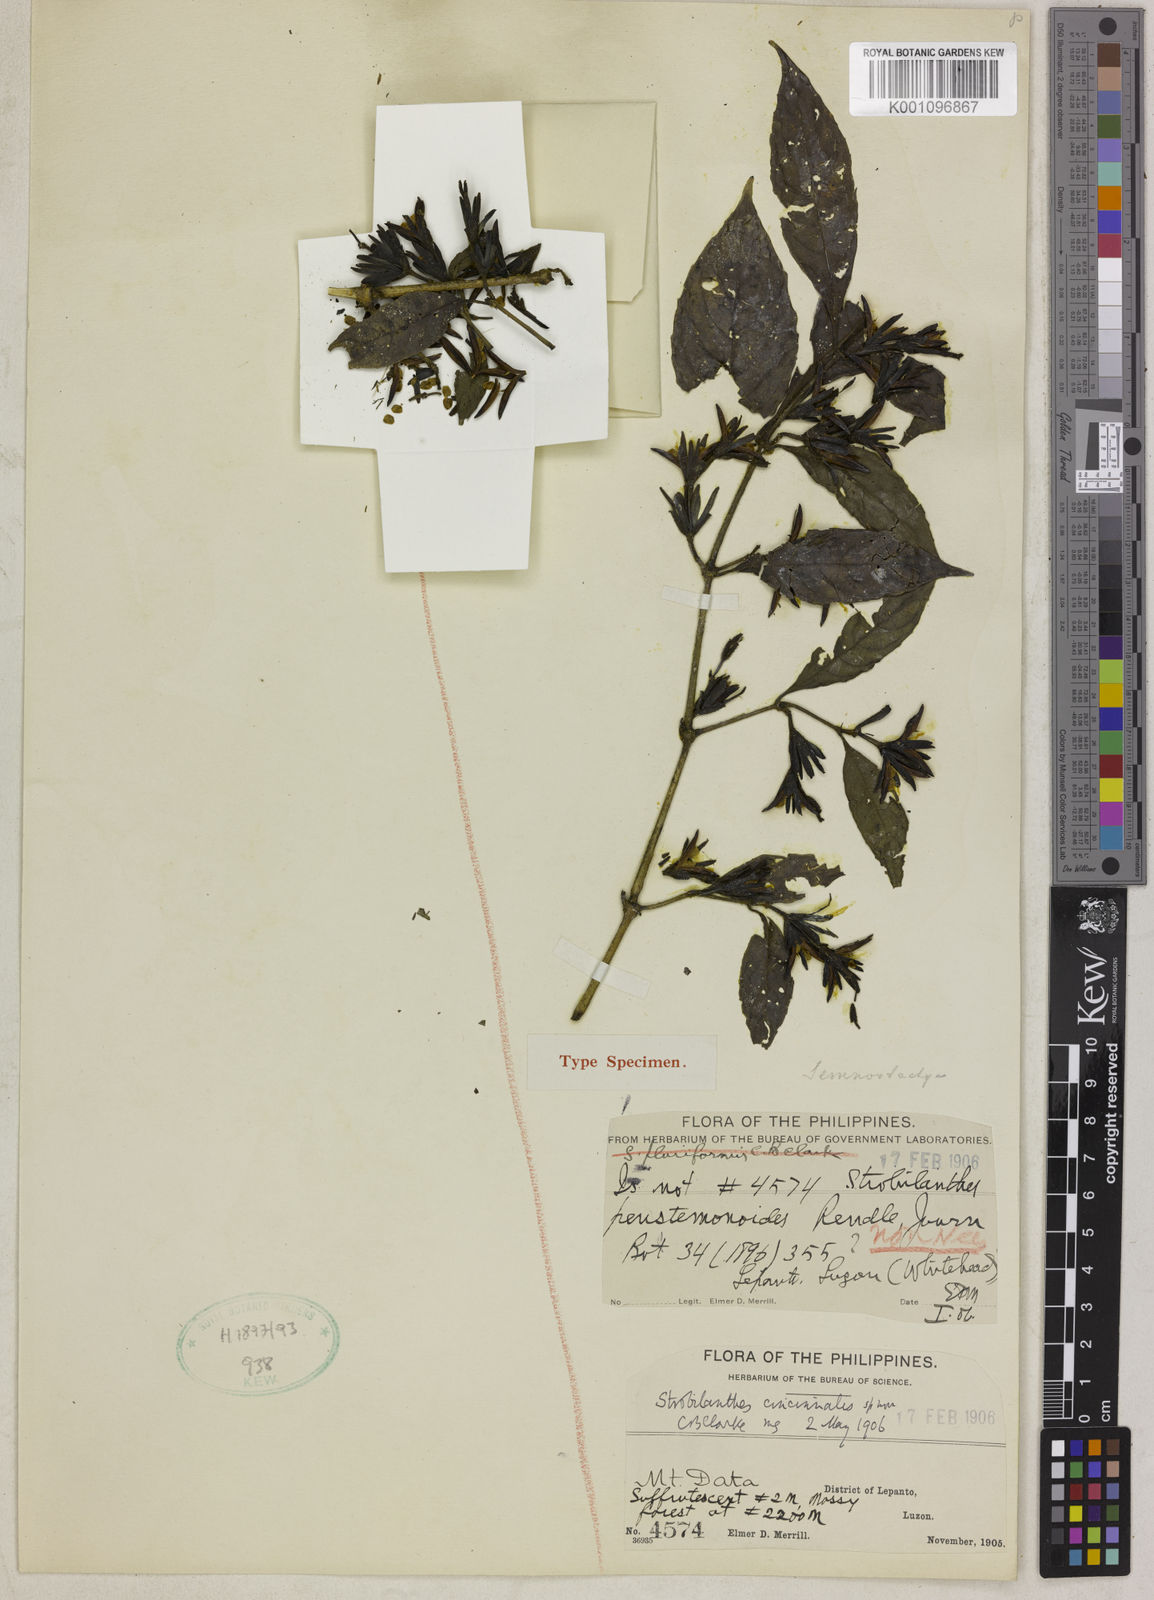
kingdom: Plantae
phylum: Tracheophyta
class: Magnoliopsida
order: Lamiales
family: Acanthaceae
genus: Strobilanthes
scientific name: Strobilanthes cincinnalis
